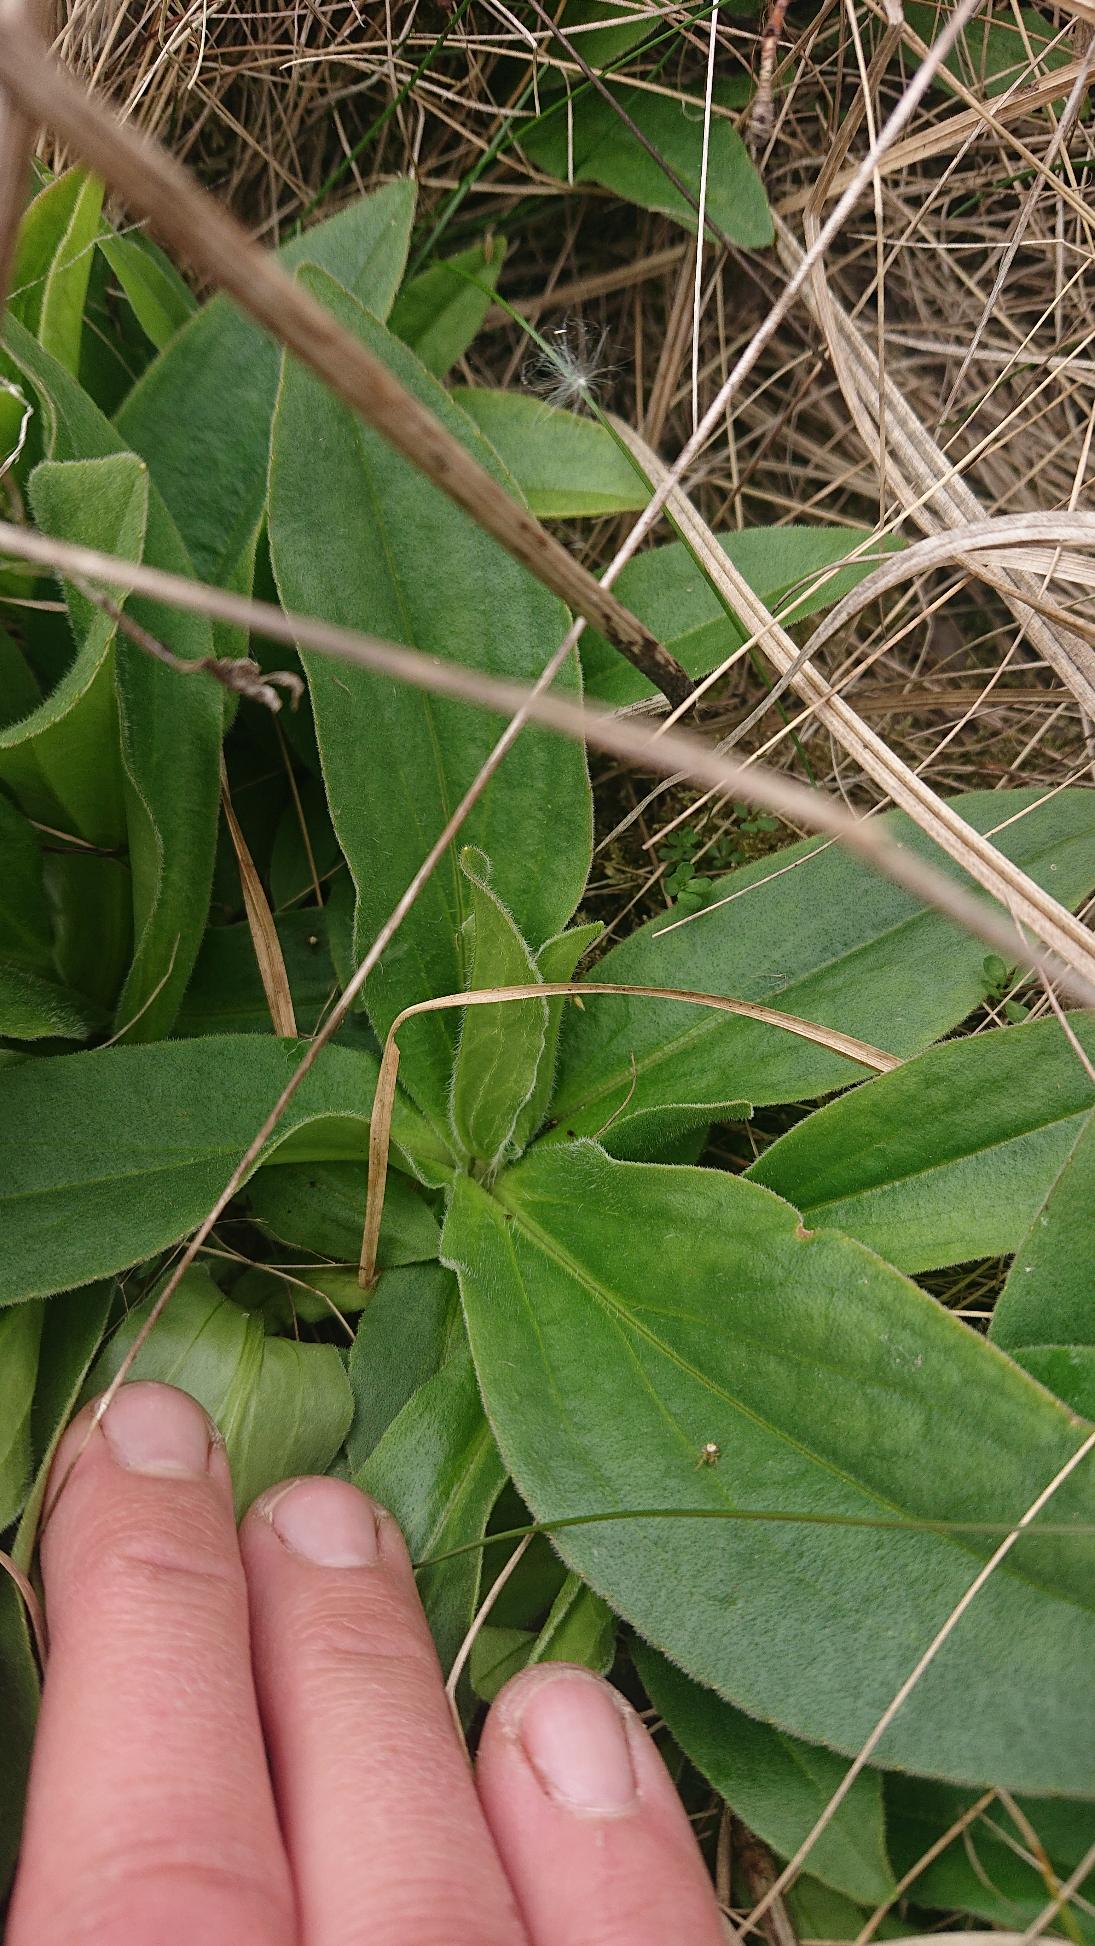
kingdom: Plantae
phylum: Tracheophyta
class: Magnoliopsida
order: Asterales
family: Asteraceae
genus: Arnica
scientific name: Arnica montana
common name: Guldblomme
